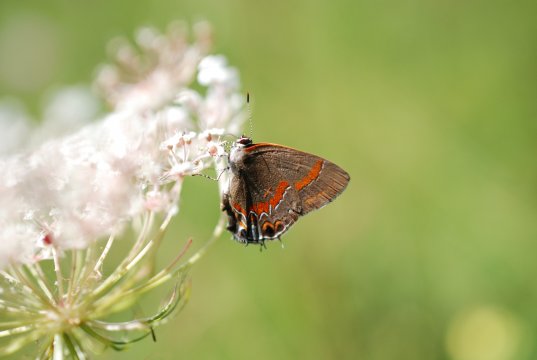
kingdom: Animalia
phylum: Arthropoda
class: Insecta
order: Lepidoptera
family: Lycaenidae
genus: Calycopis
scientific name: Calycopis cecrops
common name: Red-banded Hairstreak
